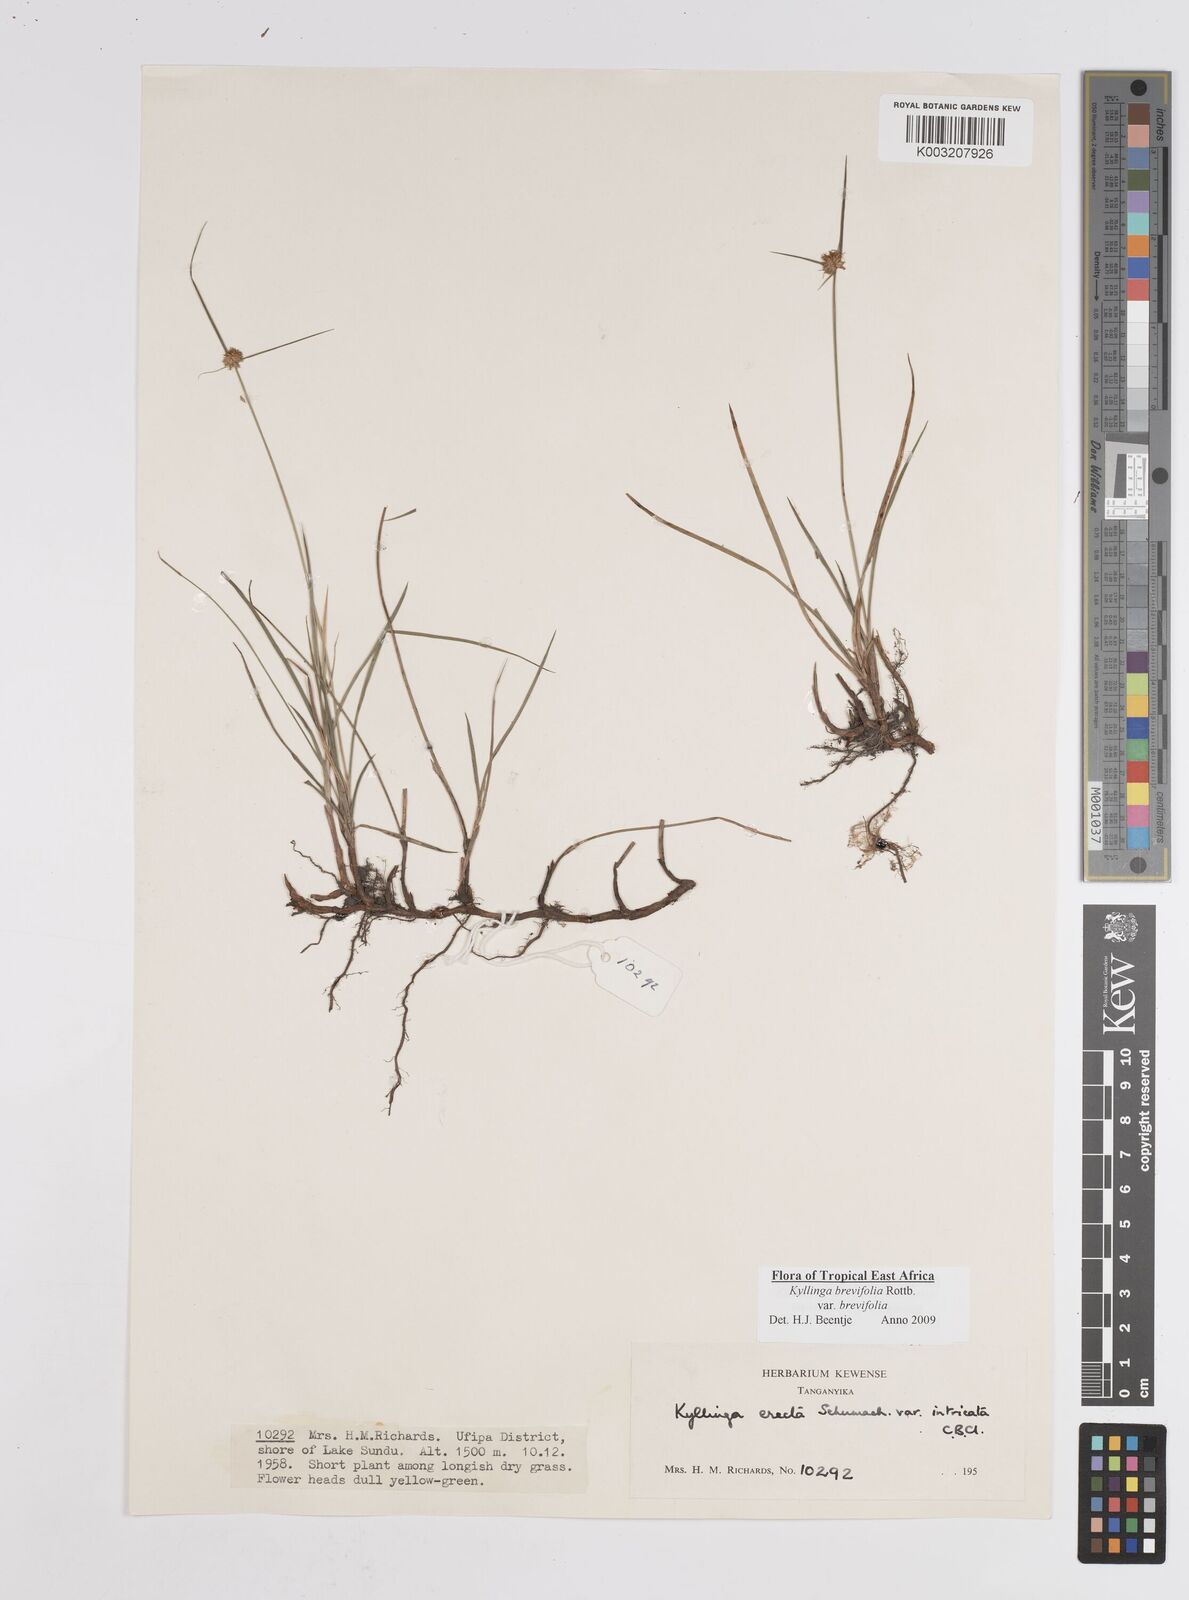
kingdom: Plantae
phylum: Tracheophyta
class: Liliopsida
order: Poales
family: Cyperaceae
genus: Cyperus
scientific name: Cyperus brevifolius
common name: Globe kyllinga
